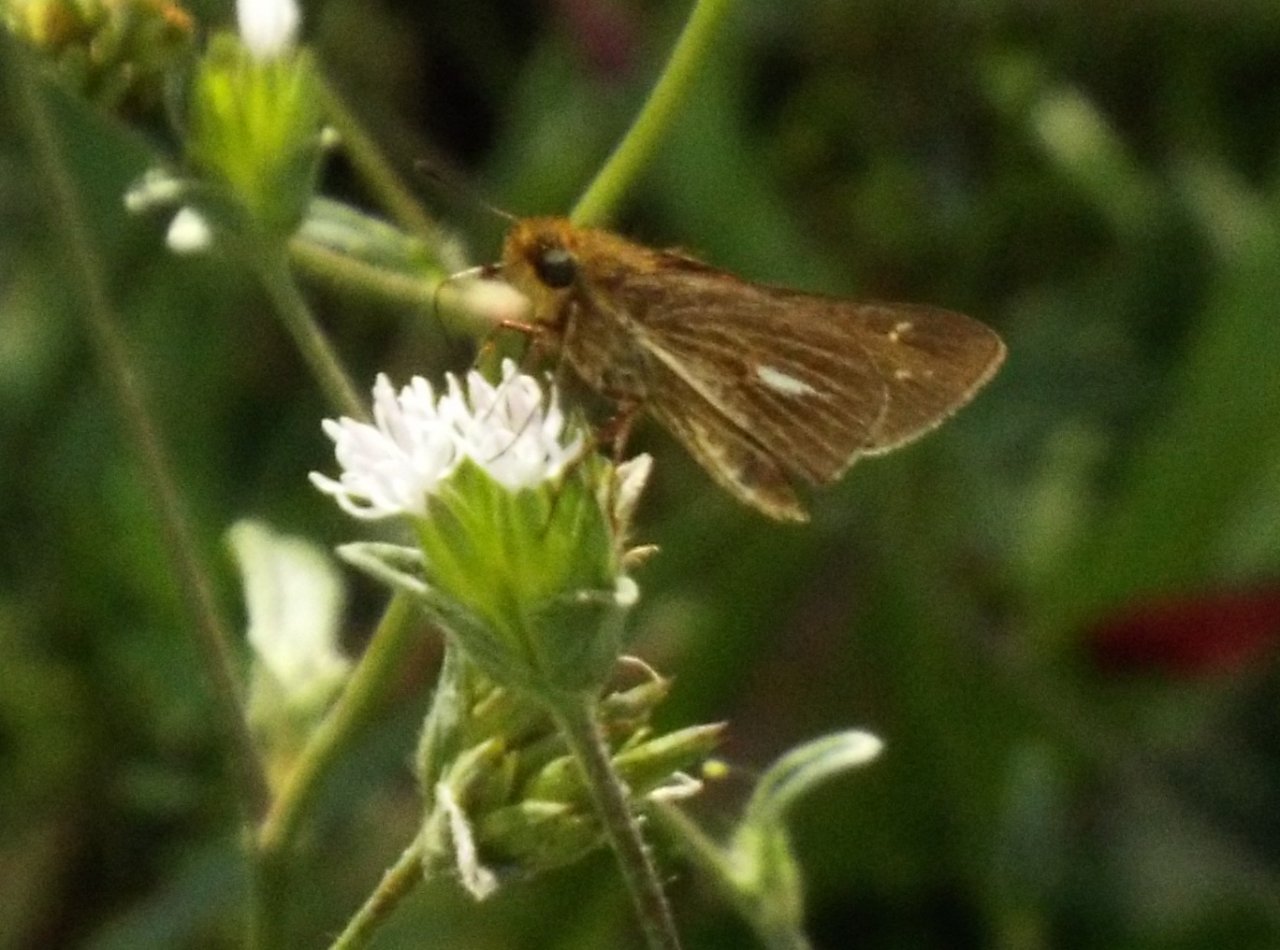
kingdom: Animalia
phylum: Arthropoda
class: Insecta
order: Lepidoptera
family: Hesperiidae
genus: Panoquina
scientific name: Panoquina panoquin
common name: Salt Marsh Skipper
